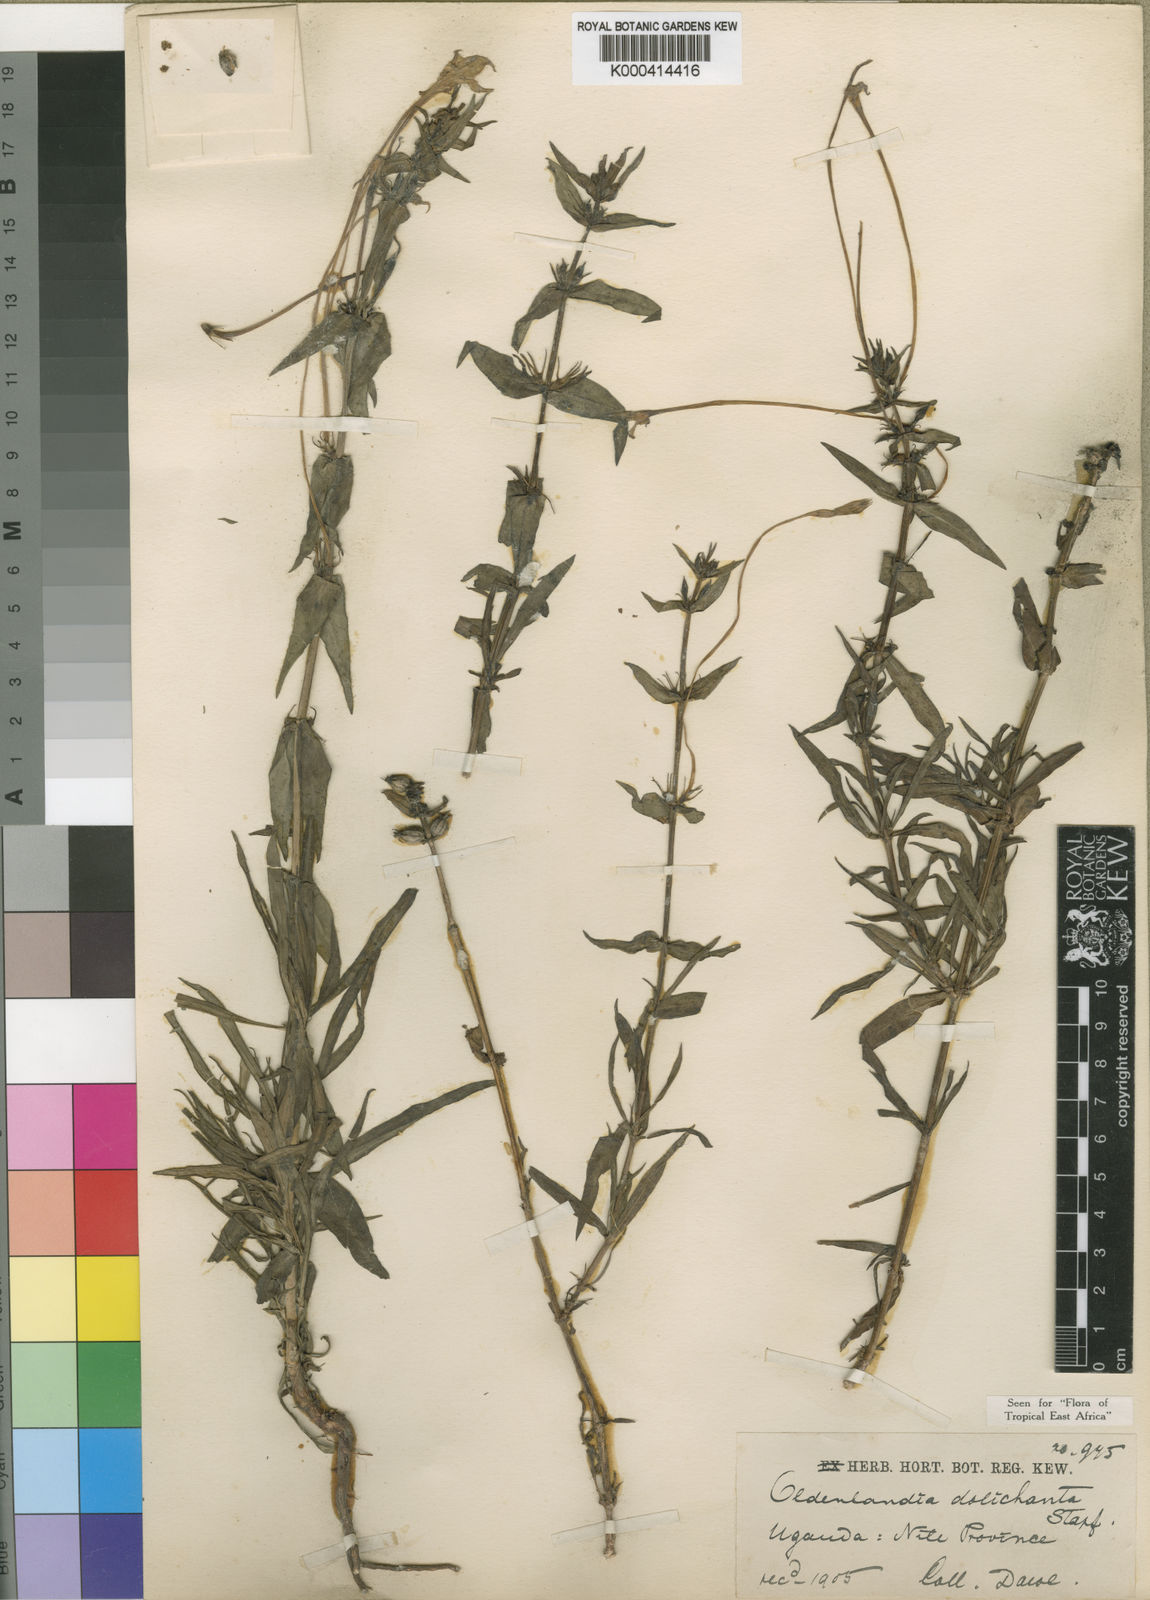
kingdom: Plantae
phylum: Tracheophyta
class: Magnoliopsida
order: Gentianales
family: Rubiaceae
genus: Conostomium
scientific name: Conostomium quadrangulare
